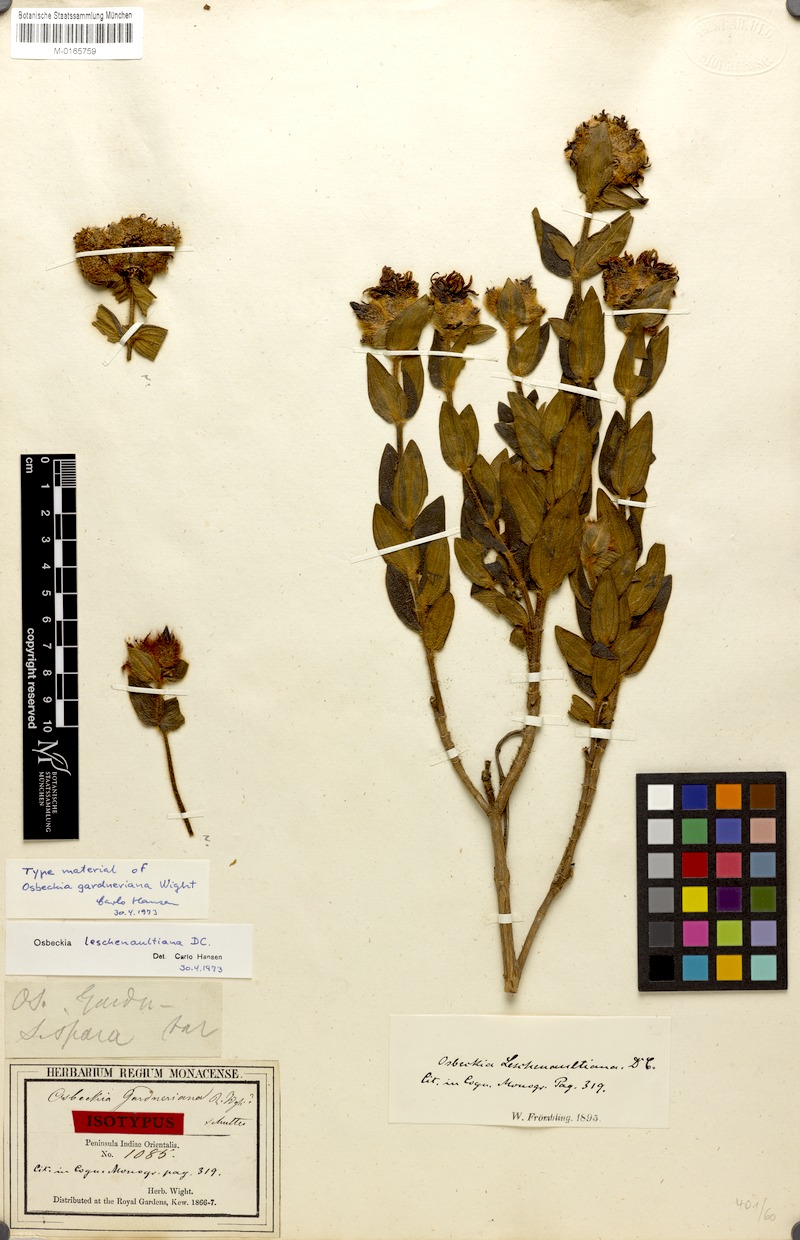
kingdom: Plantae
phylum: Tracheophyta
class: Magnoliopsida
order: Myrtales
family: Melastomataceae
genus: Osbeckia
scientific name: Osbeckia leschenaultiana
